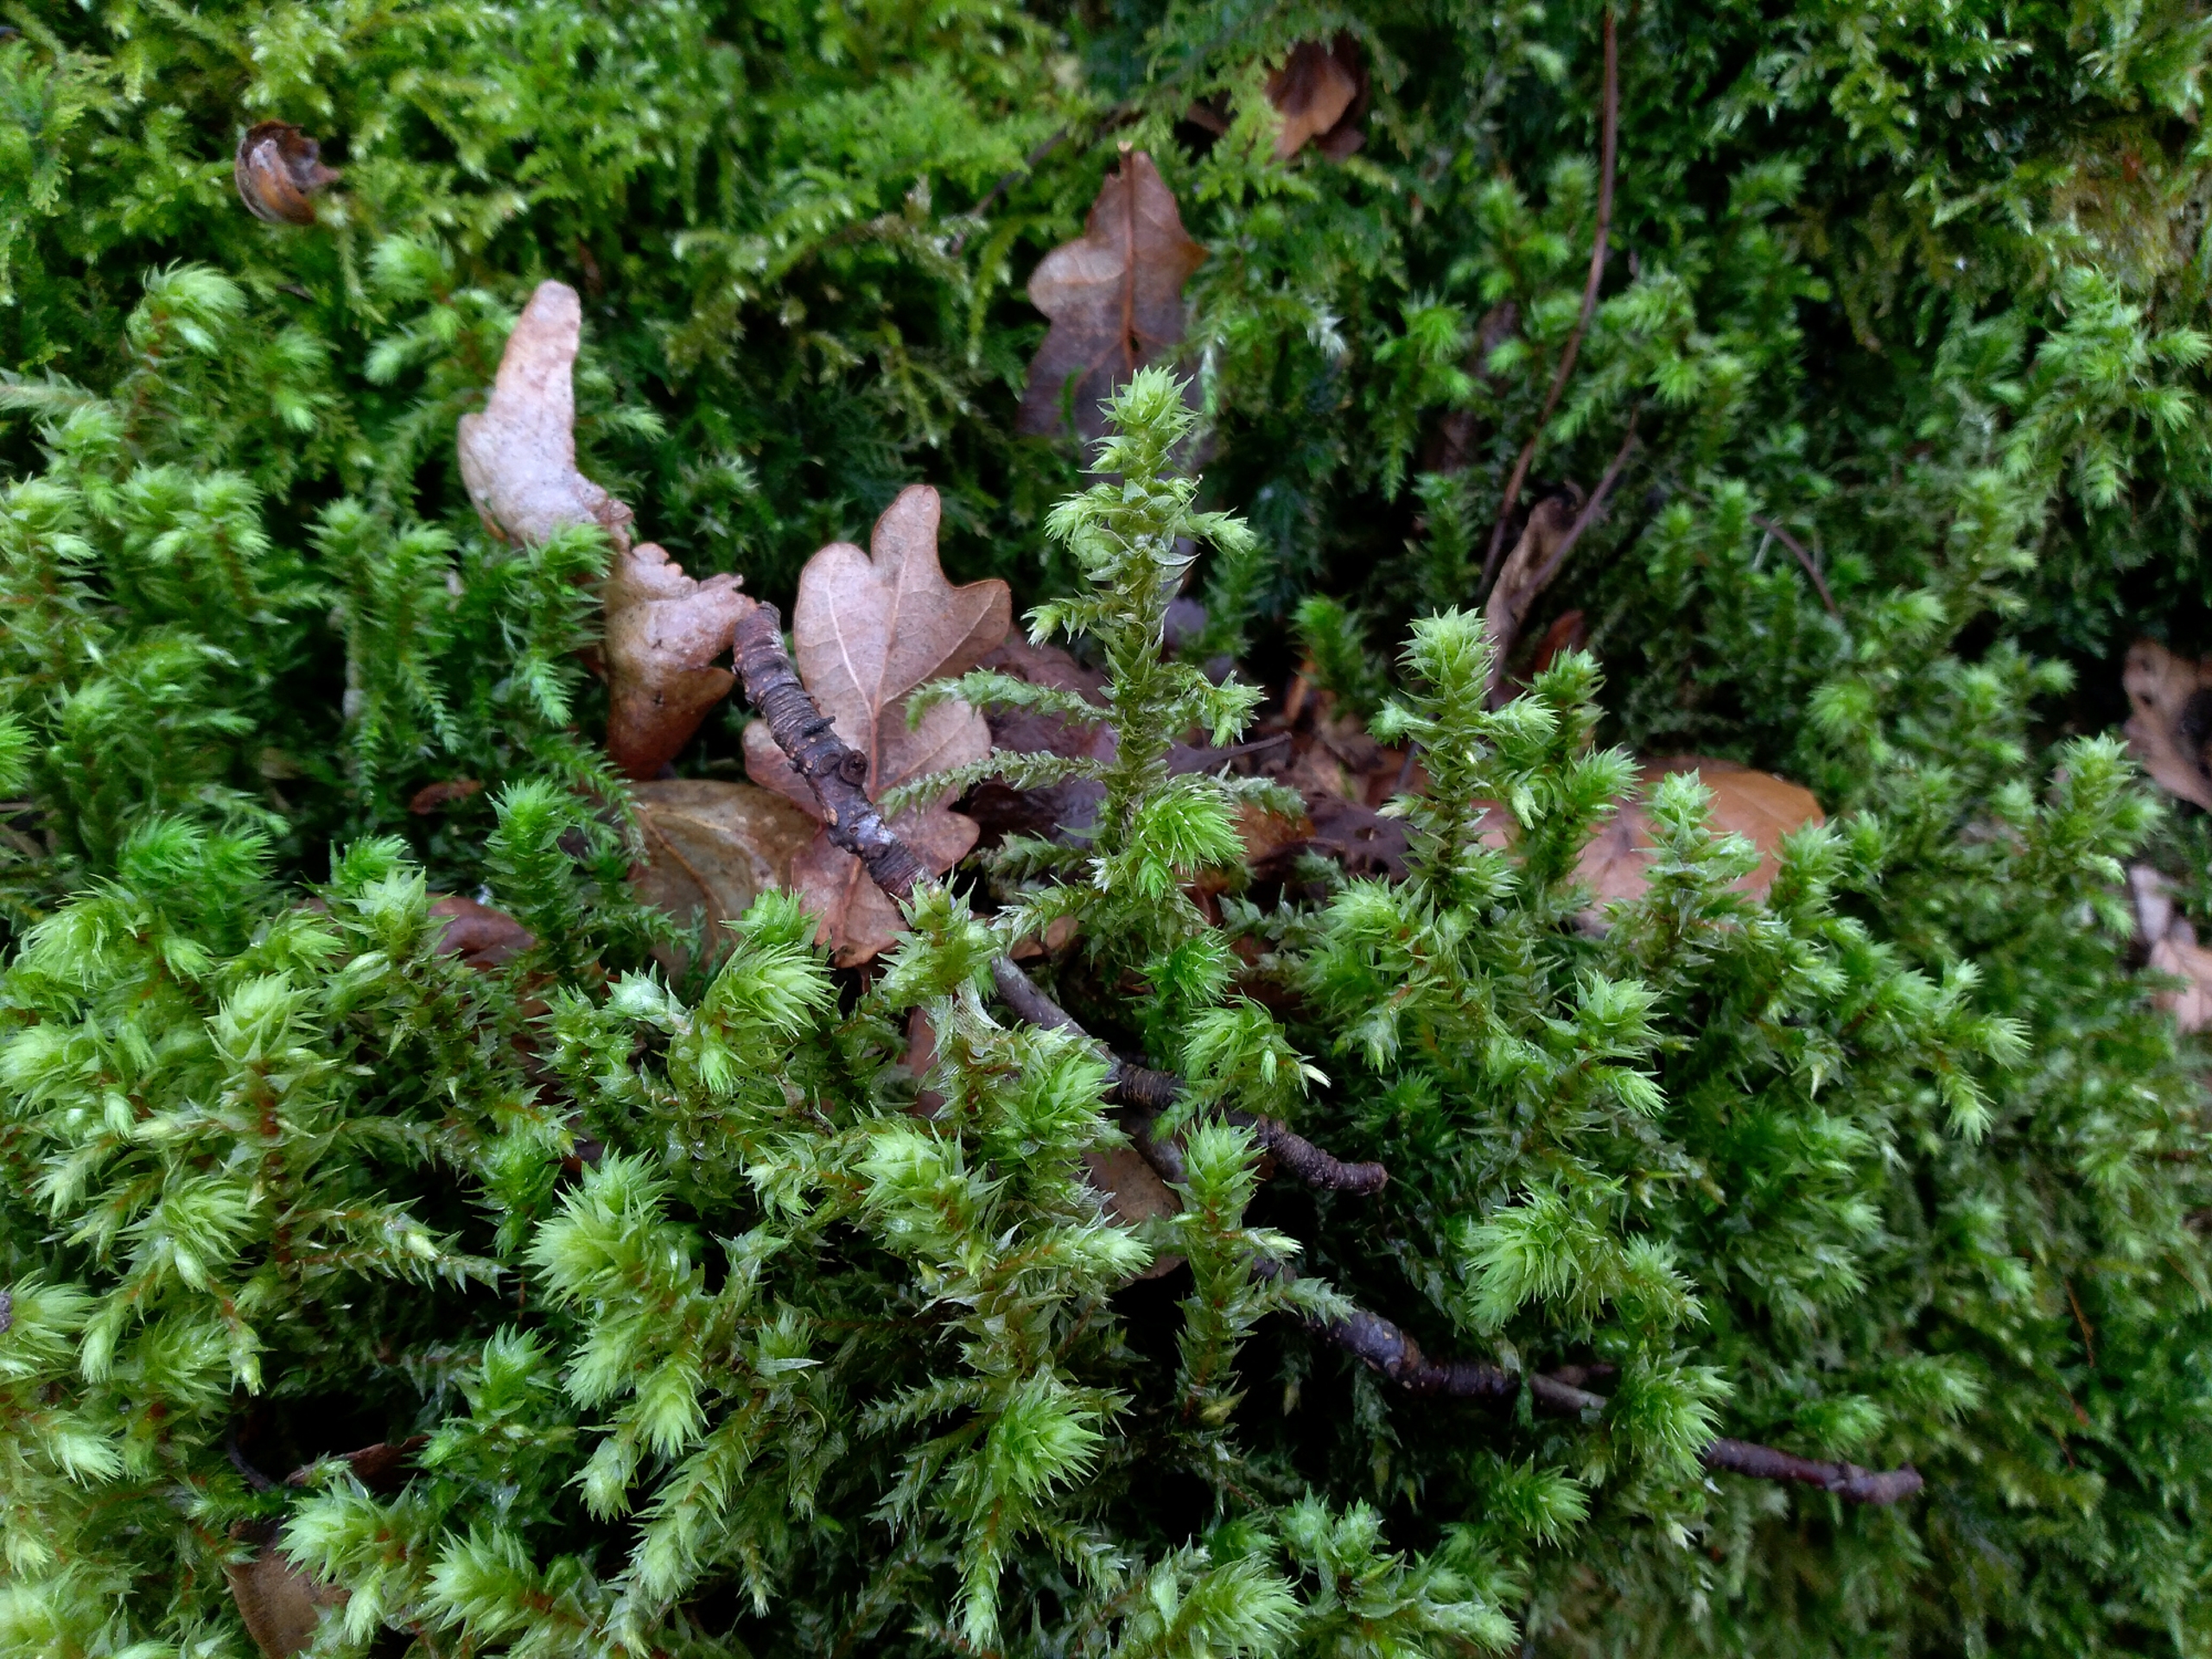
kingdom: Plantae
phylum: Bryophyta
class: Bryopsida
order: Hypnales
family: Hylocomiaceae
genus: Hylocomiadelphus
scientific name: Hylocomiadelphus triquetrus
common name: Stor kransemos
